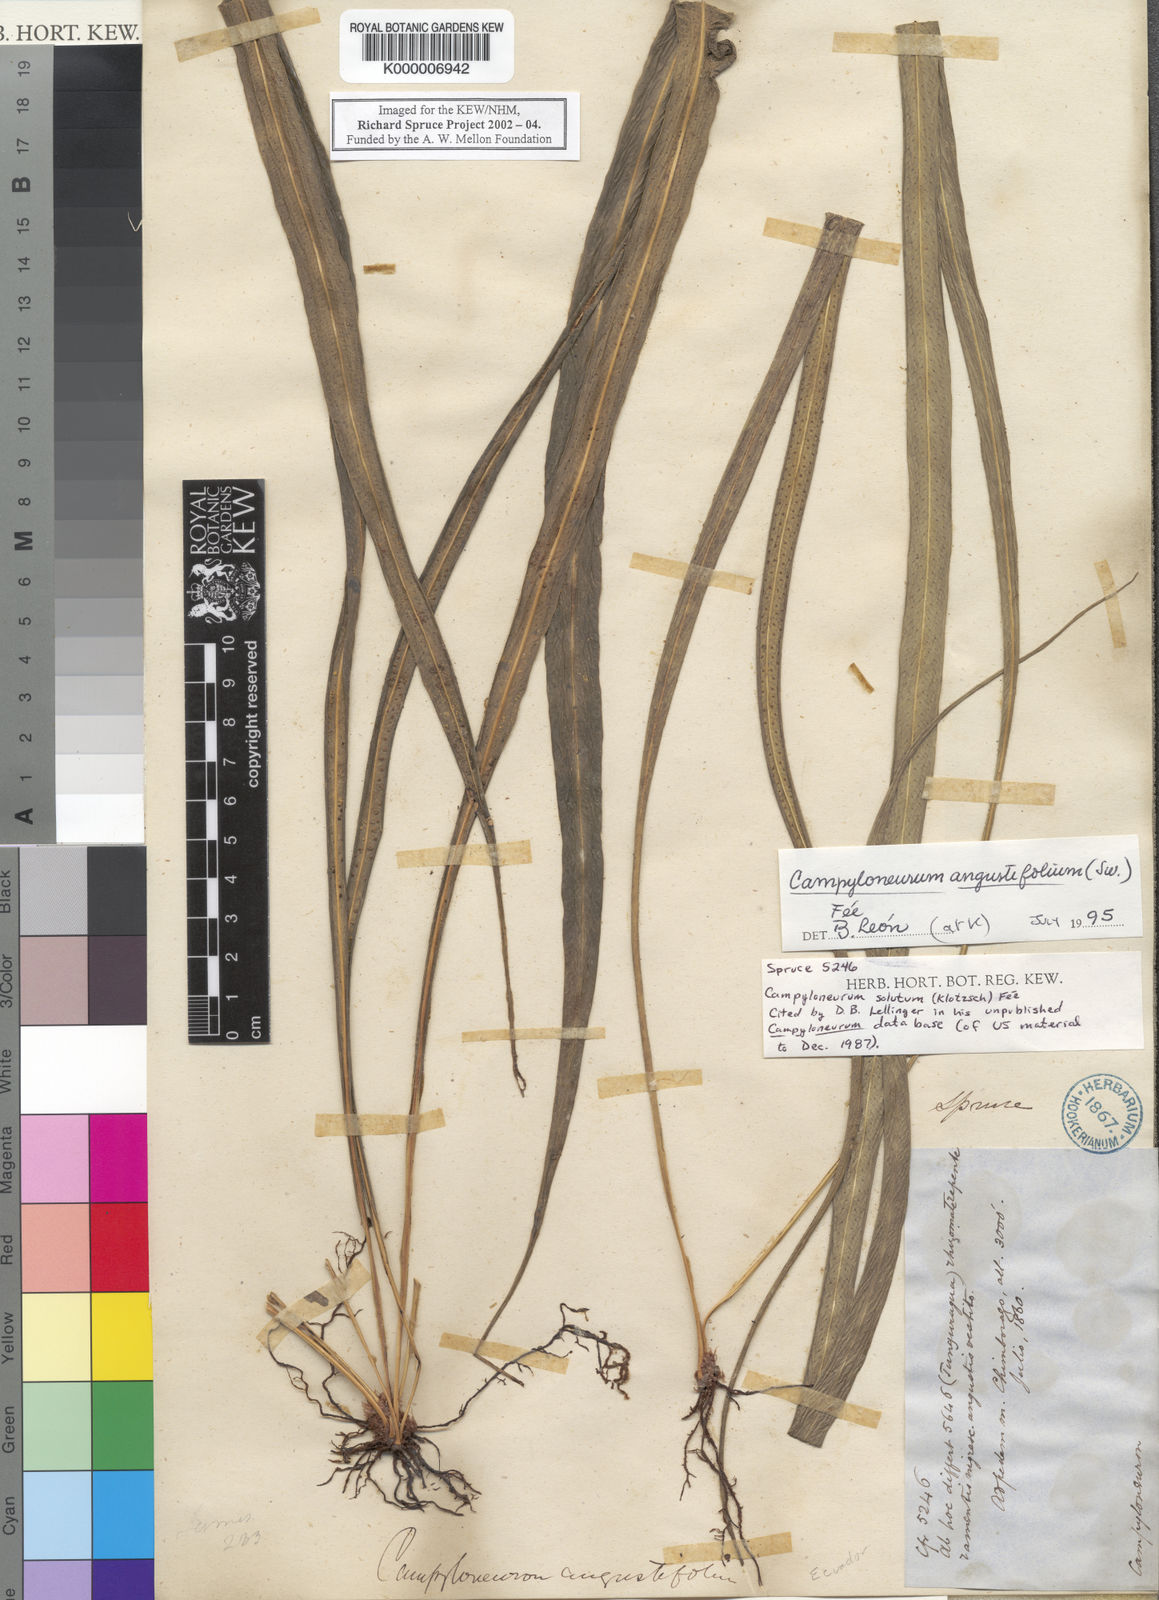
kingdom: Plantae
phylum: Tracheophyta
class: Polypodiopsida
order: Polypodiales
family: Polypodiaceae
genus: Campyloneurum
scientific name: Campyloneurum
